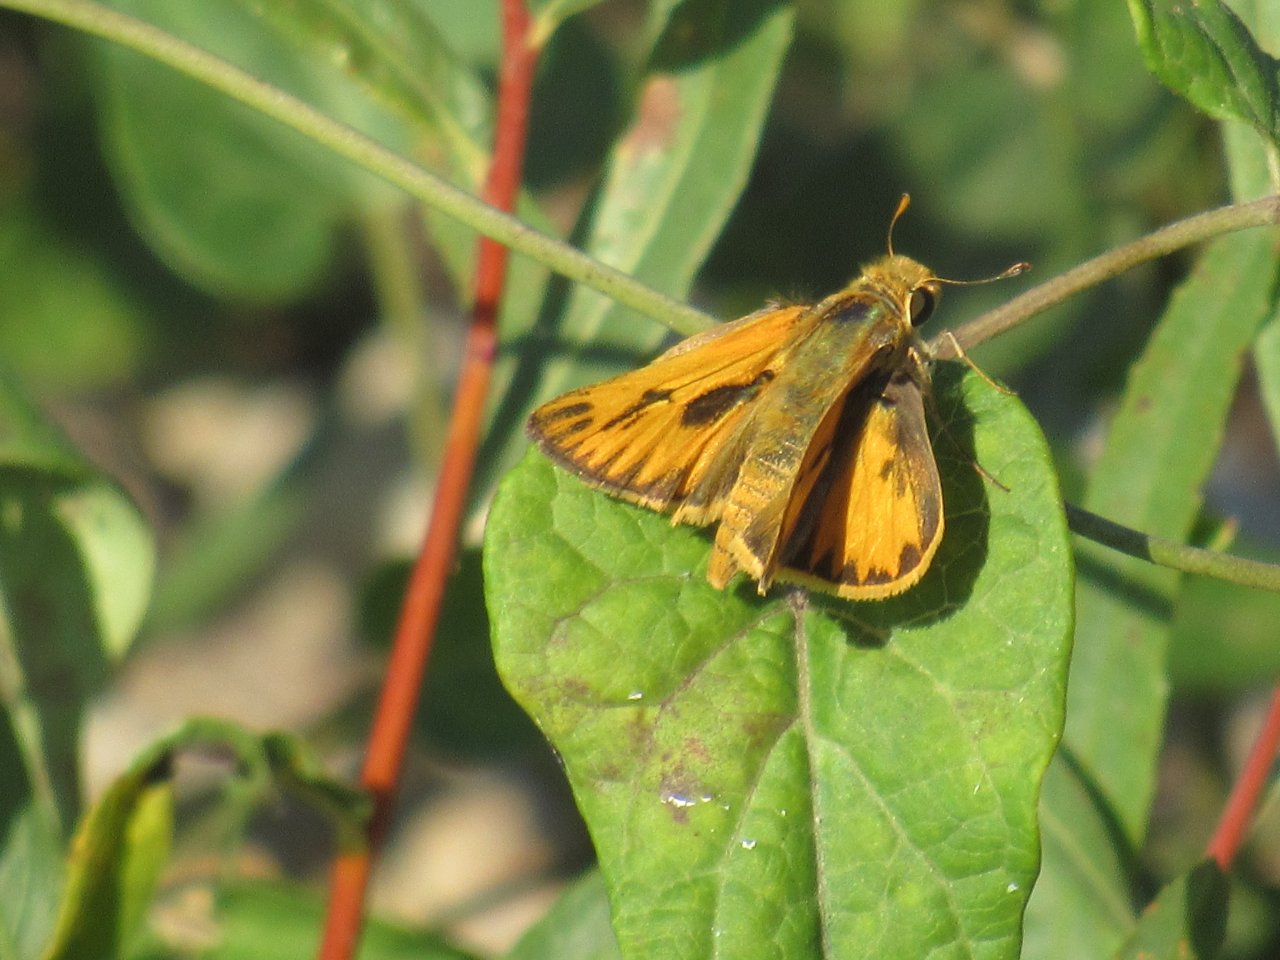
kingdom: Animalia
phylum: Arthropoda
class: Insecta
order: Lepidoptera
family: Hesperiidae
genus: Hylephila
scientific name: Hylephila phyleus
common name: Fiery Skipper
